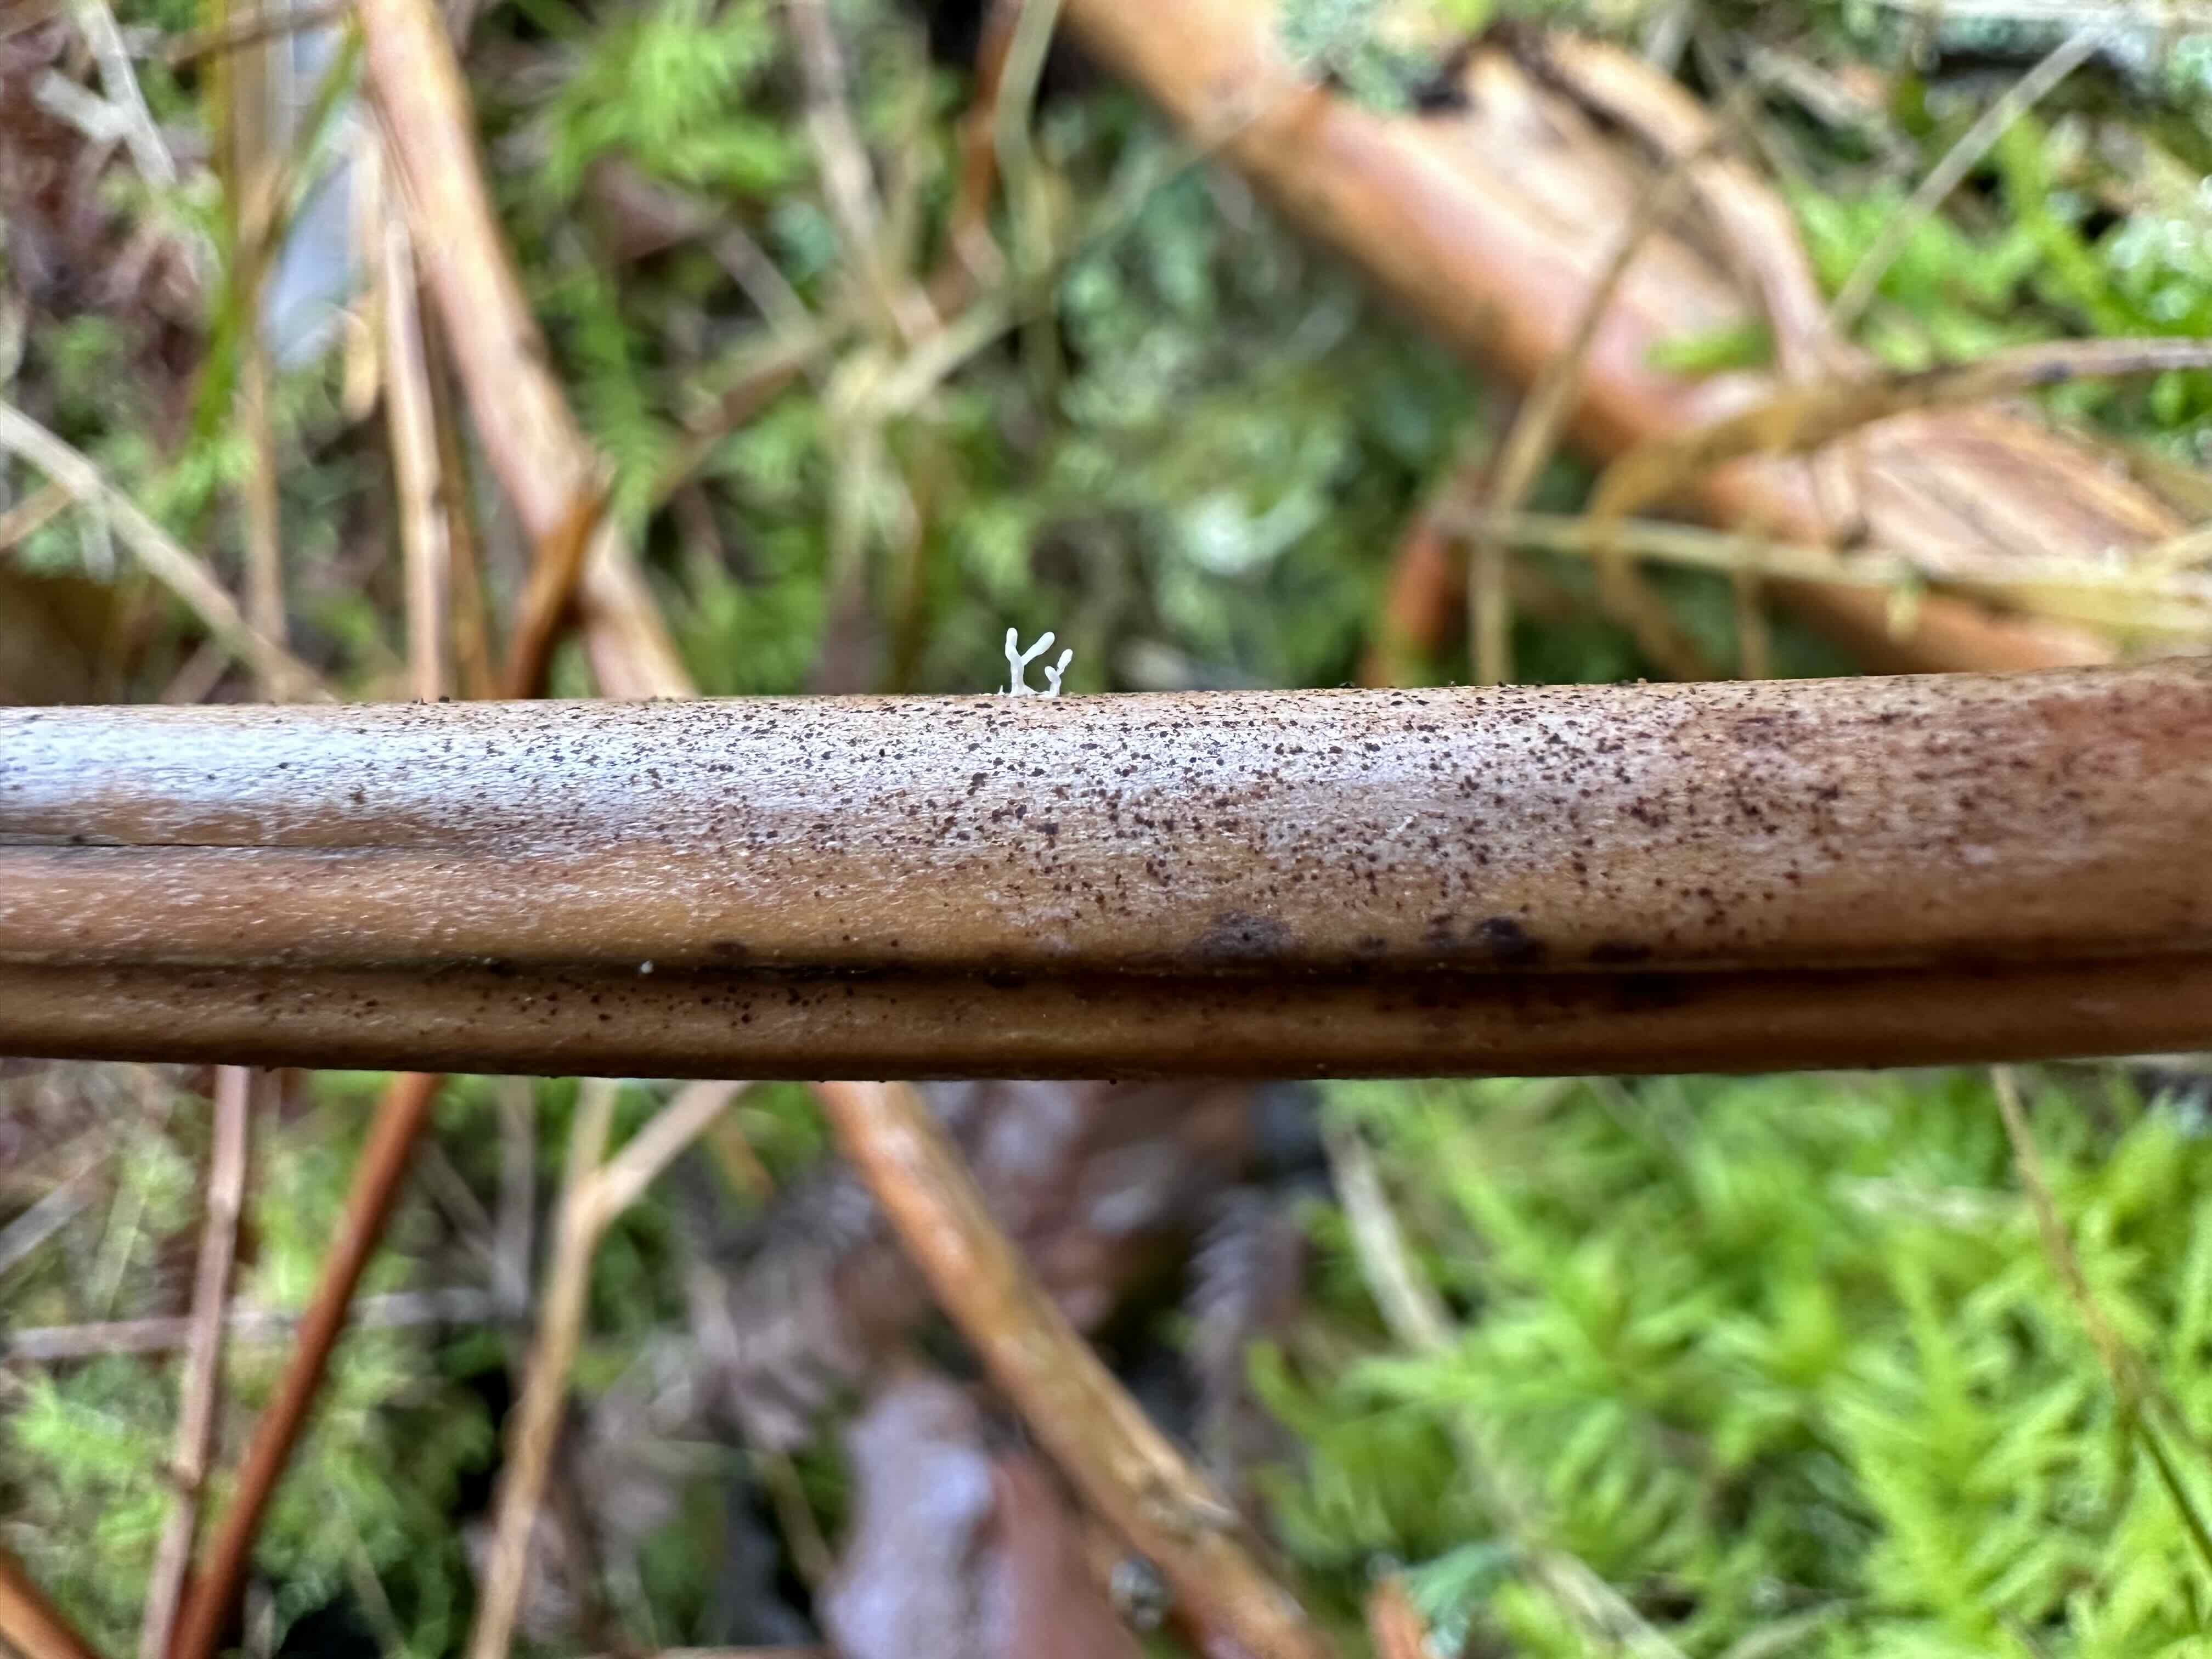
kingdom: Fungi
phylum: Basidiomycota
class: Agaricomycetes
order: Agaricales
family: Typhulaceae
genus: Typhula
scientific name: Typhula quisquiliaris
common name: ørnebregne-trådkølle
